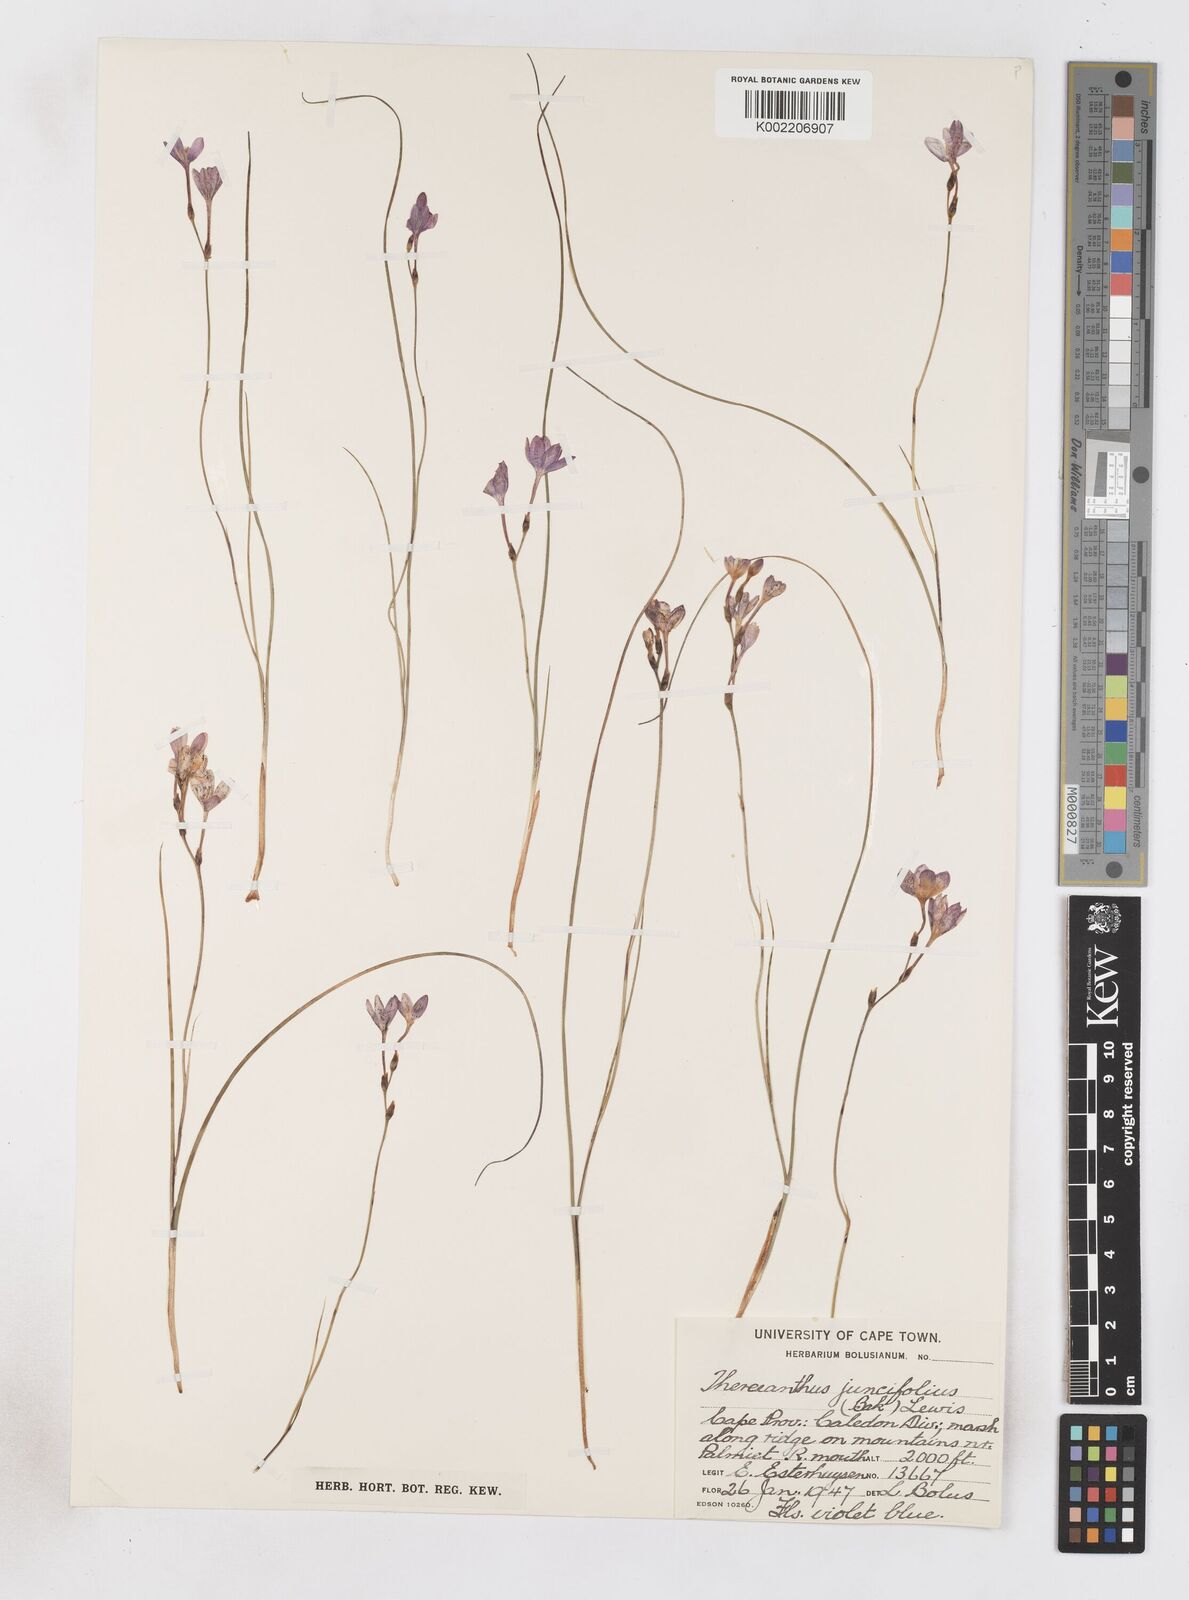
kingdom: Plantae
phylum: Tracheophyta
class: Liliopsida
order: Asparagales
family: Iridaceae
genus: Micranthus
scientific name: Micranthus plantagineus
